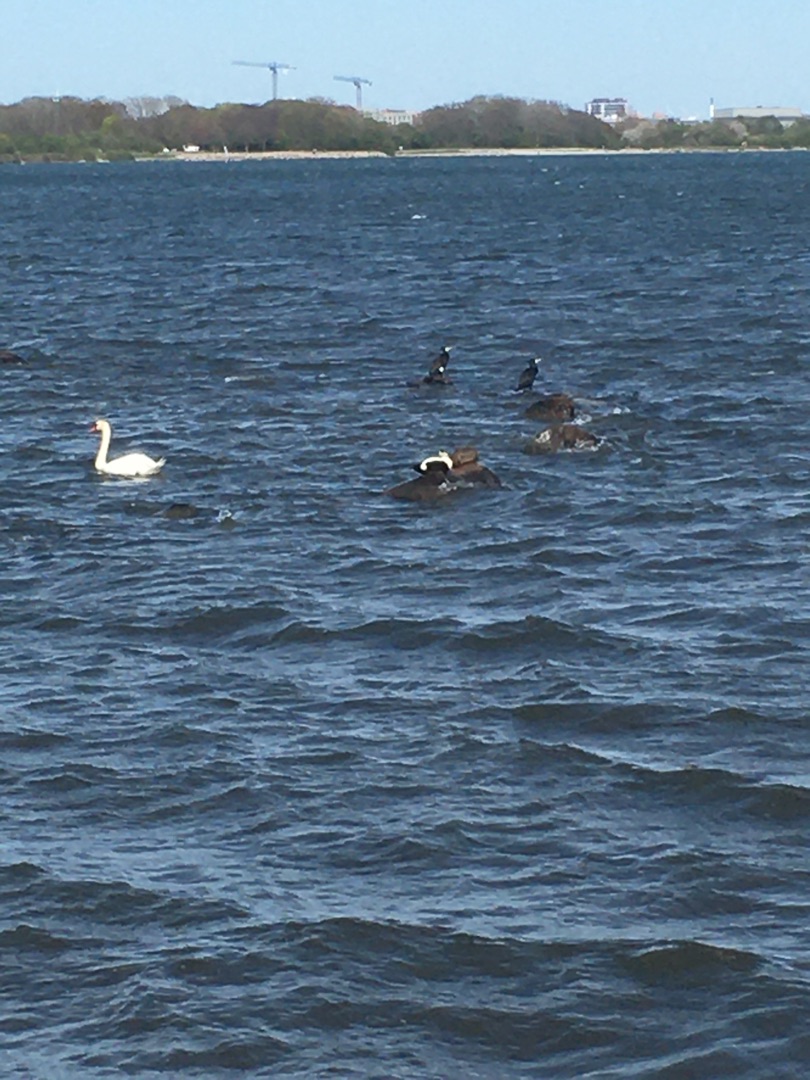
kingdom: Animalia
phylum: Chordata
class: Aves
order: Anseriformes
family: Anatidae
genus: Somateria
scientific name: Somateria mollissima
